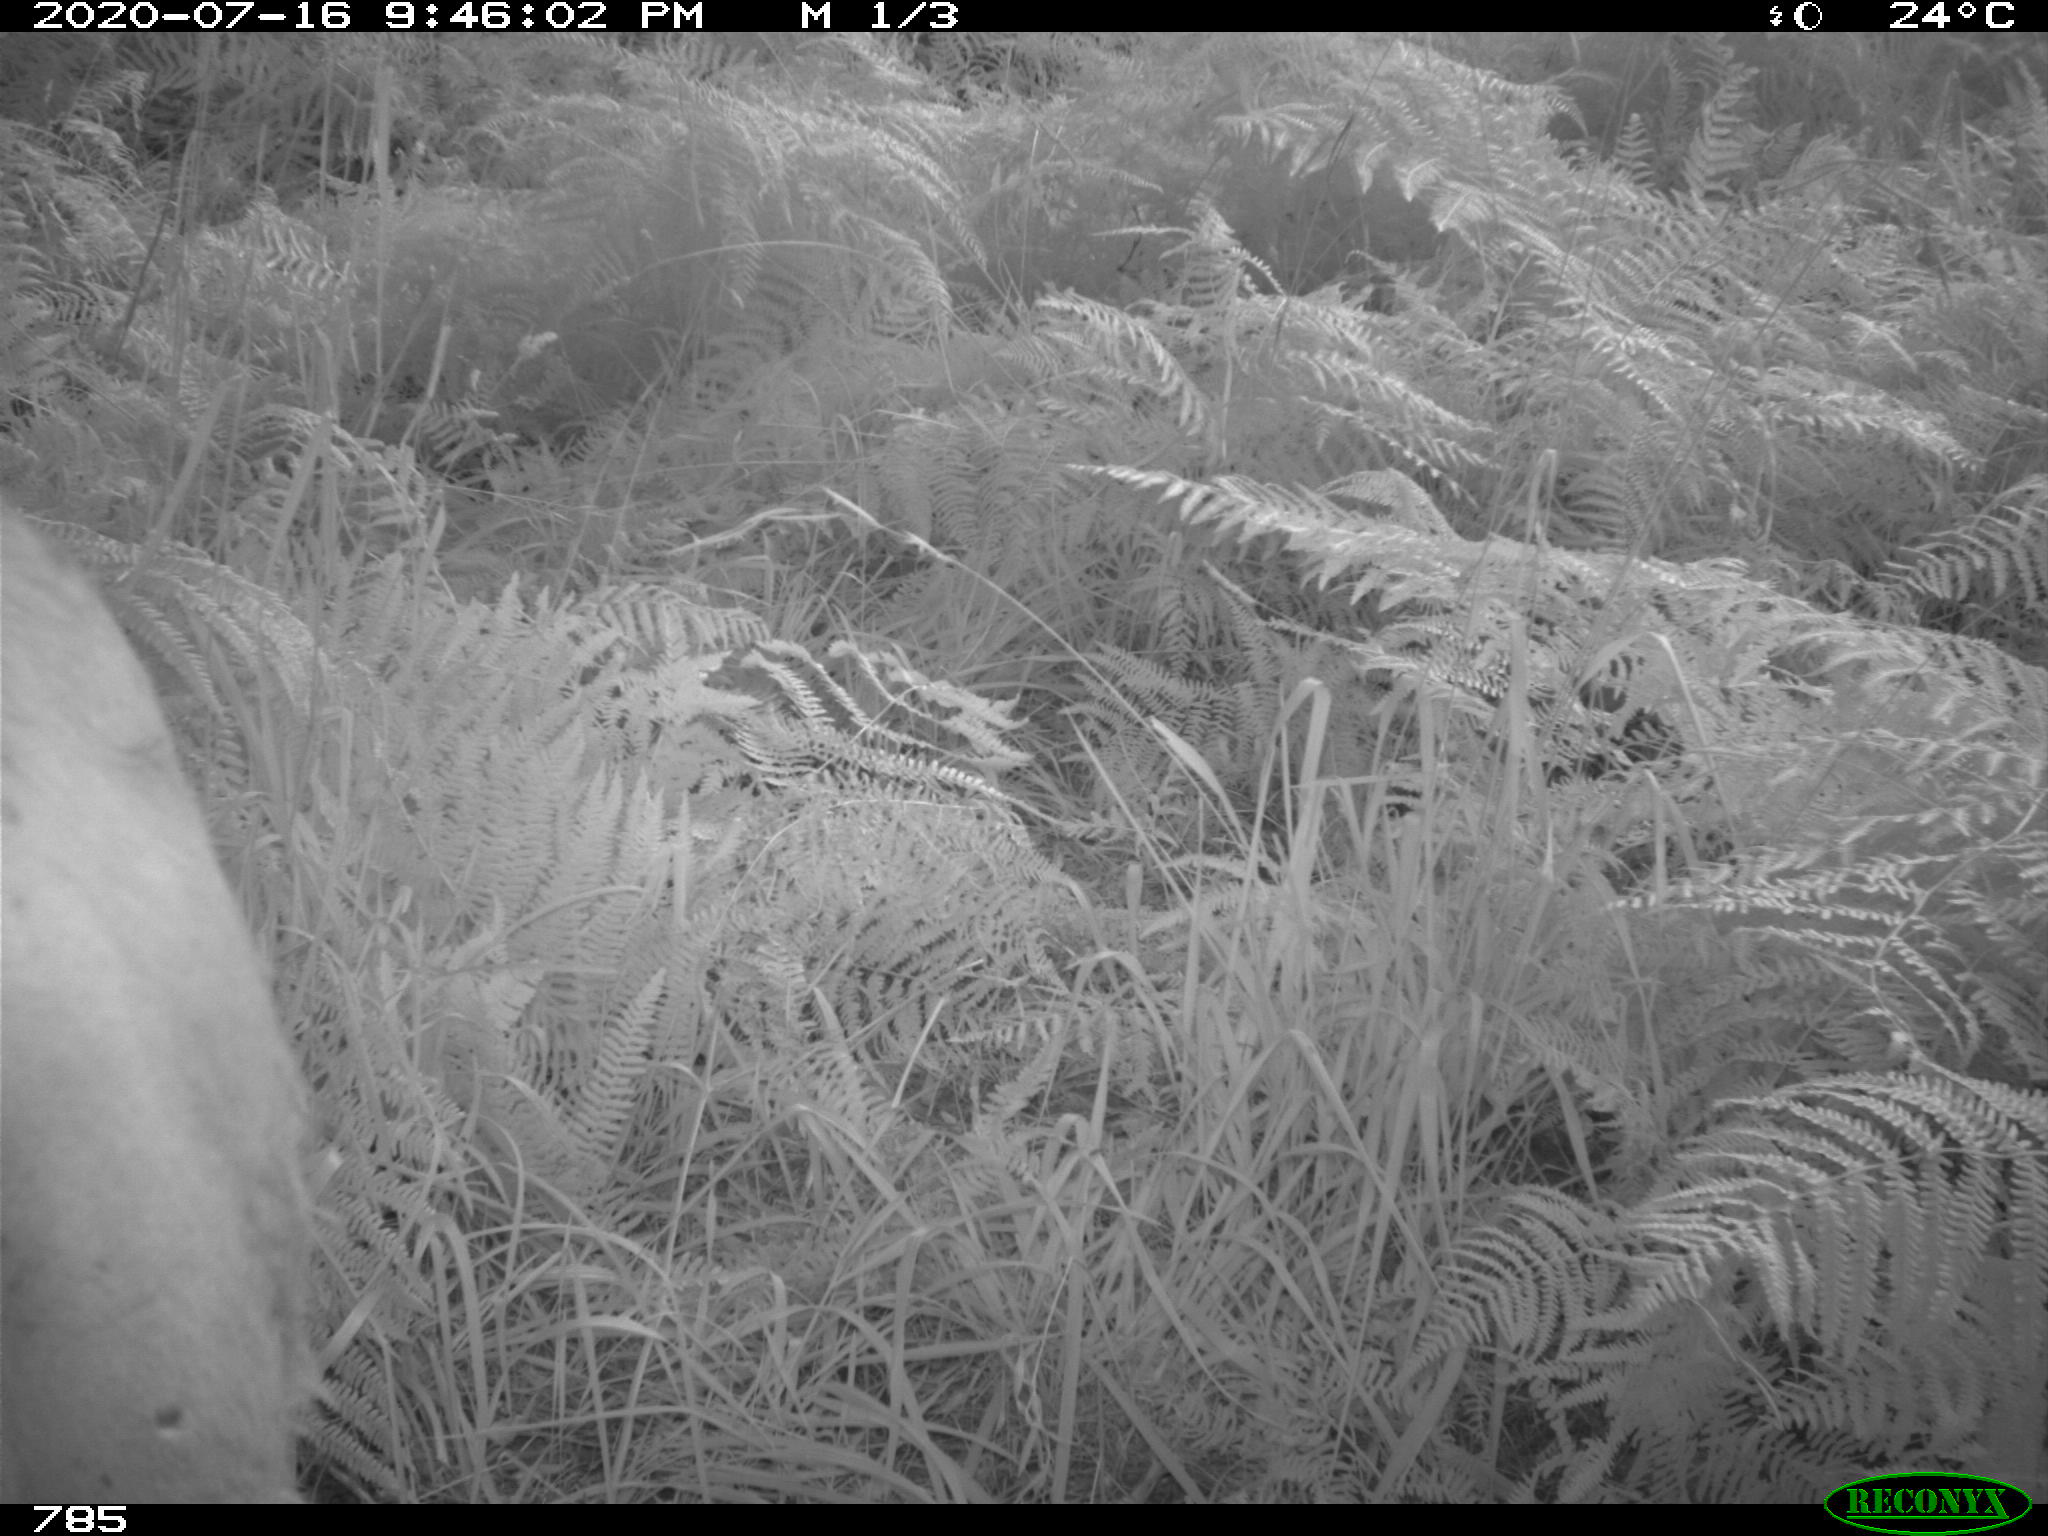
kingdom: Animalia
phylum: Chordata
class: Mammalia
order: Artiodactyla
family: Bovidae
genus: Bos
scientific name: Bos taurus
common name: Domesticated cattle
